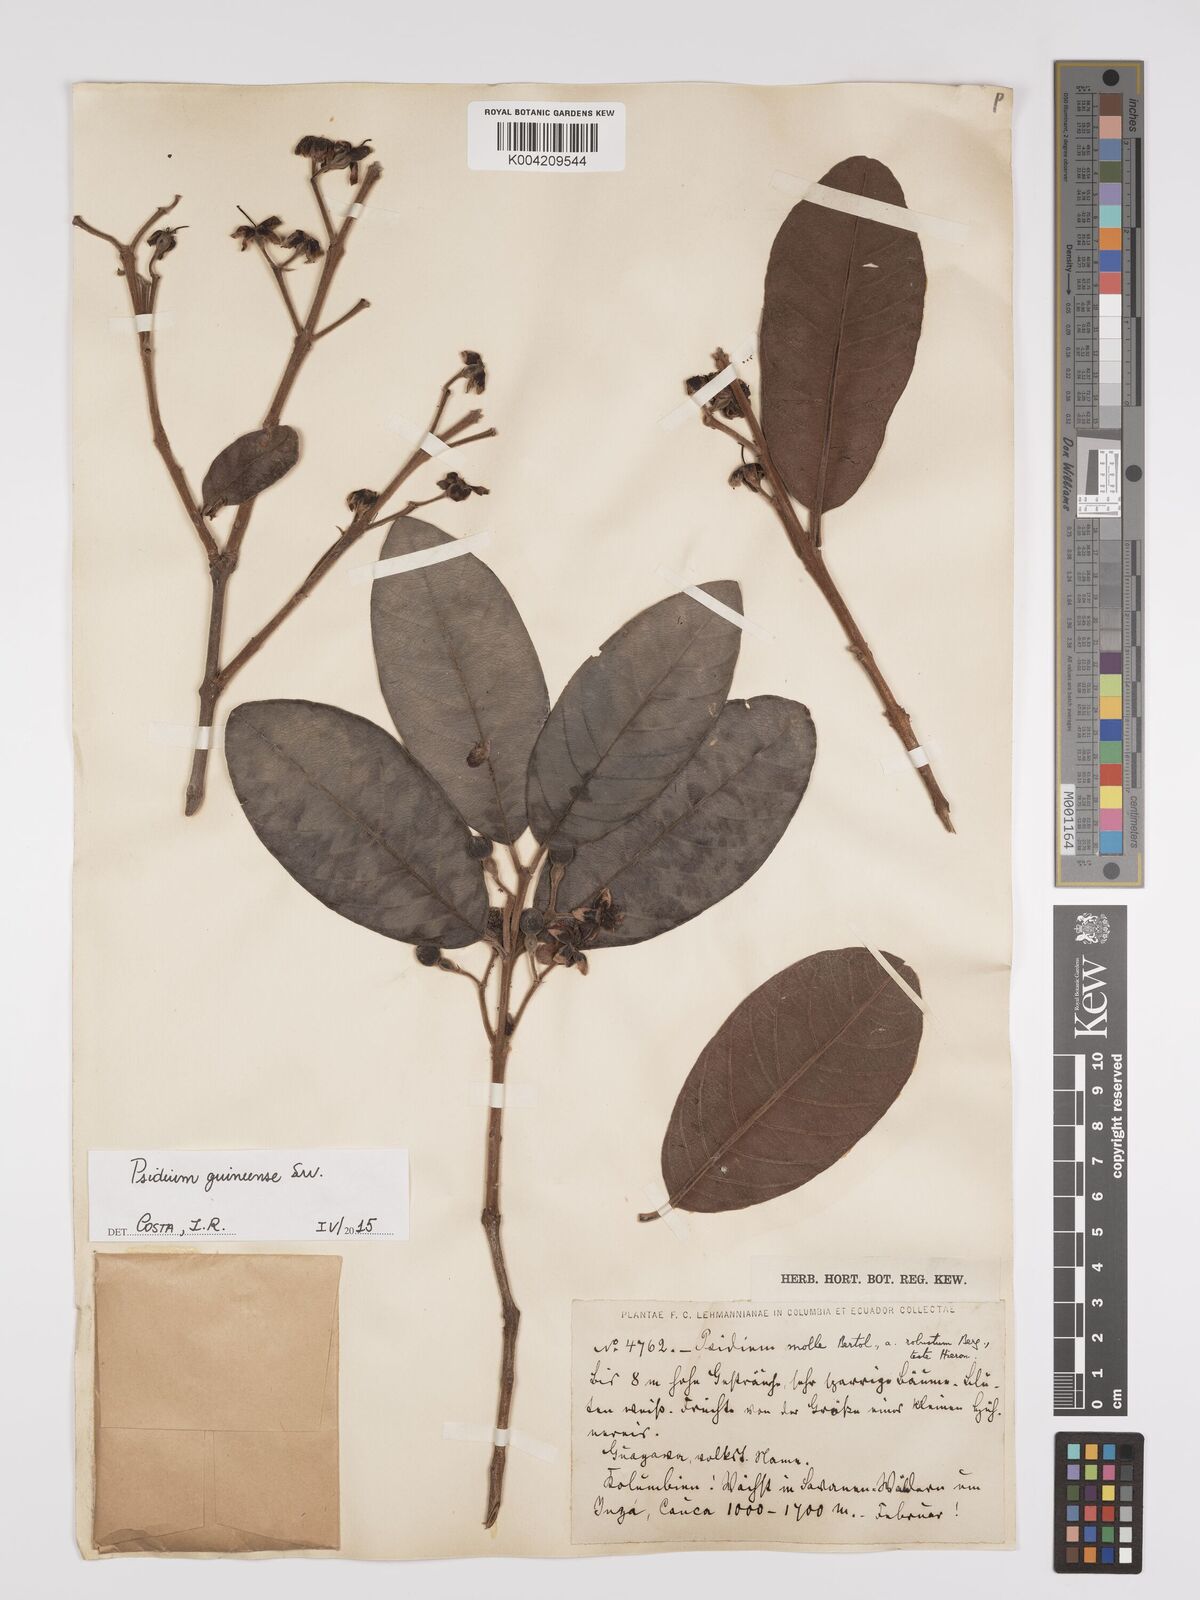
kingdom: Plantae
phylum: Tracheophyta
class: Magnoliopsida
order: Myrtales
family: Myrtaceae
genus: Psidium
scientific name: Psidium guineense
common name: Brazilian guava
